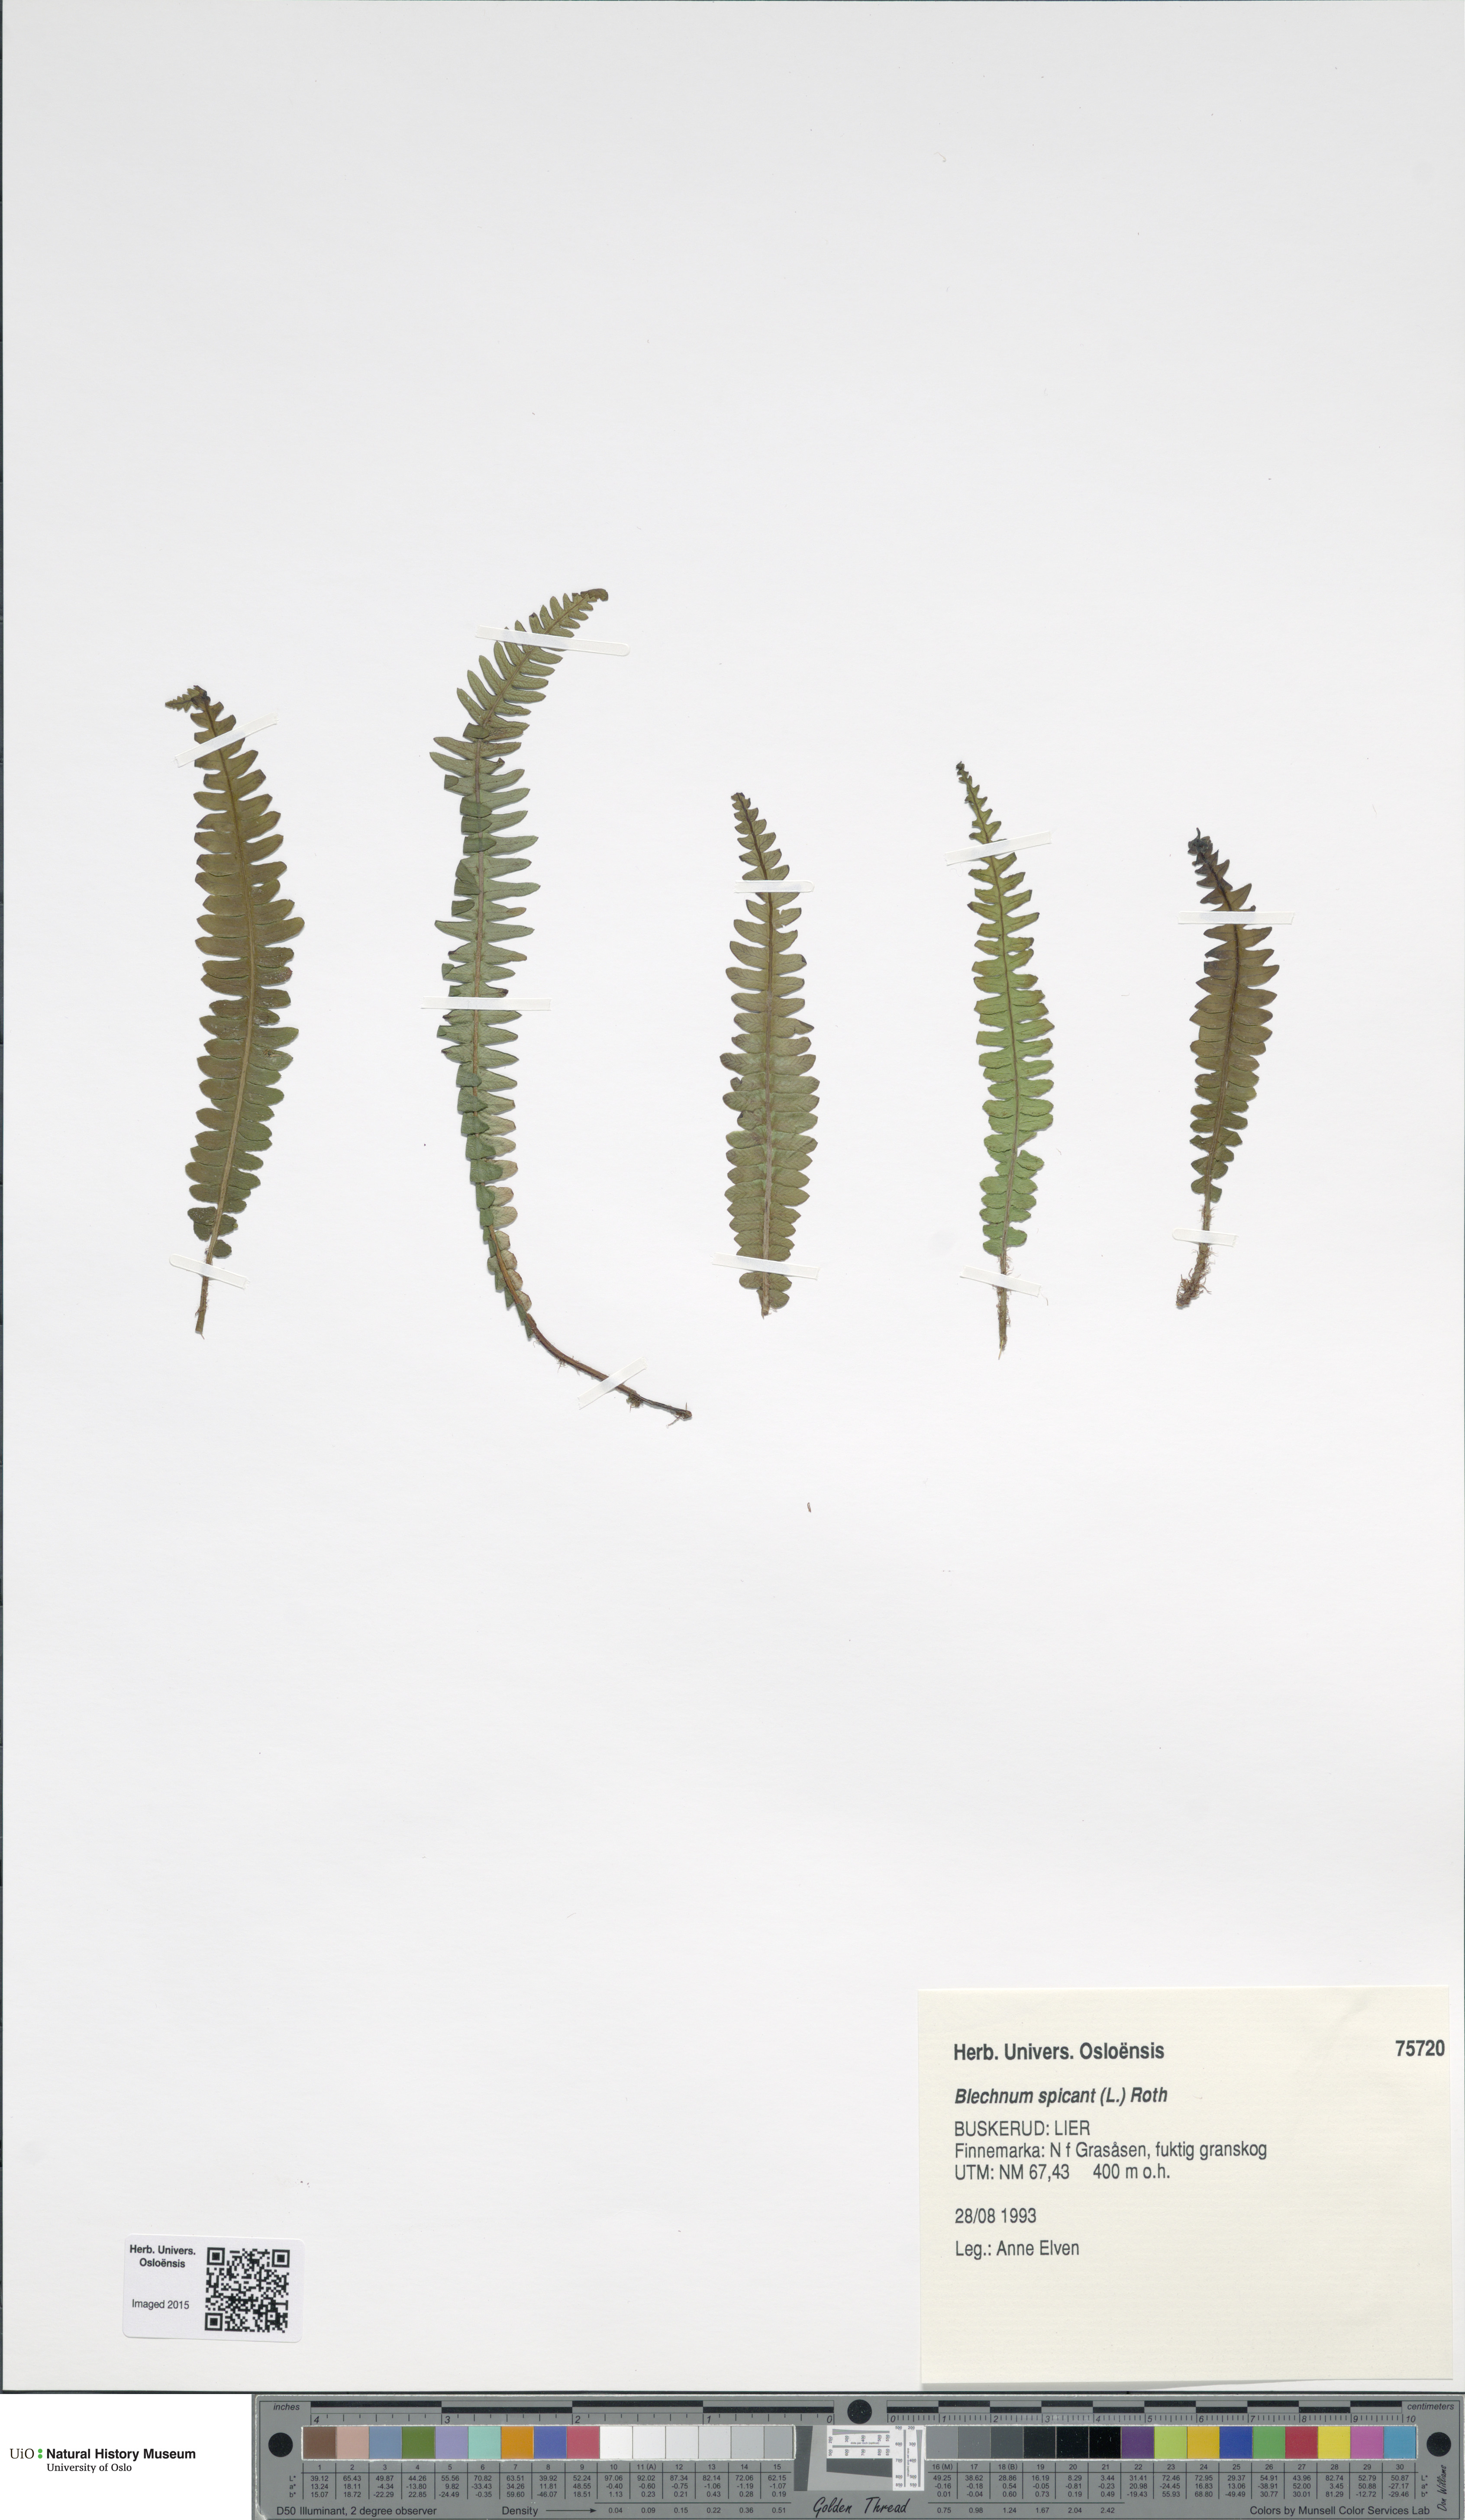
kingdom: Plantae
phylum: Tracheophyta
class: Polypodiopsida
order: Polypodiales
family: Blechnaceae
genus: Struthiopteris
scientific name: Struthiopteris spicant
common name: Deer fern
